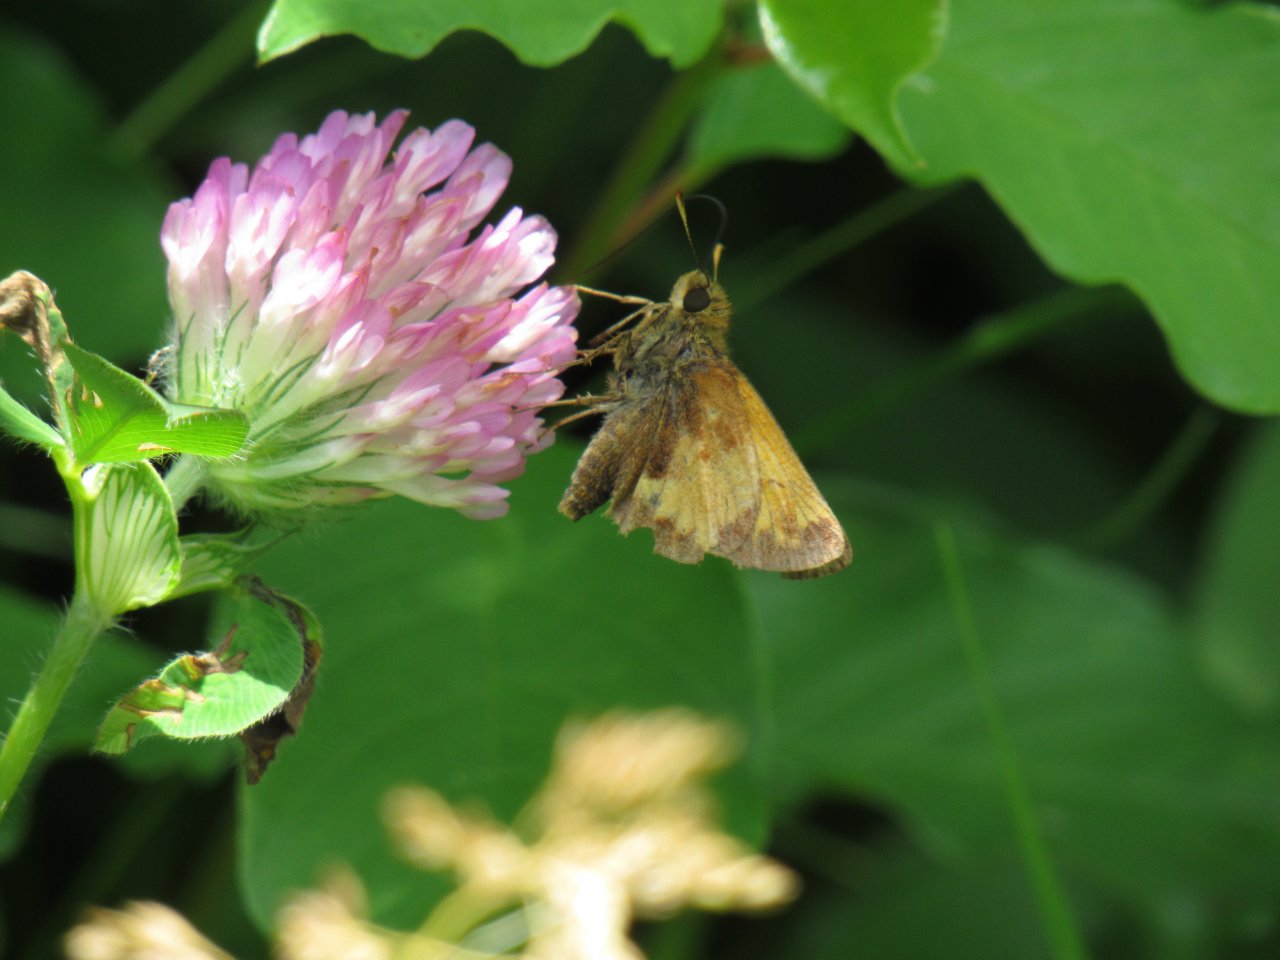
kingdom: Animalia
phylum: Arthropoda
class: Insecta
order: Lepidoptera
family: Hesperiidae
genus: Lon
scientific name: Lon hobomok
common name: Hobomok Skipper
